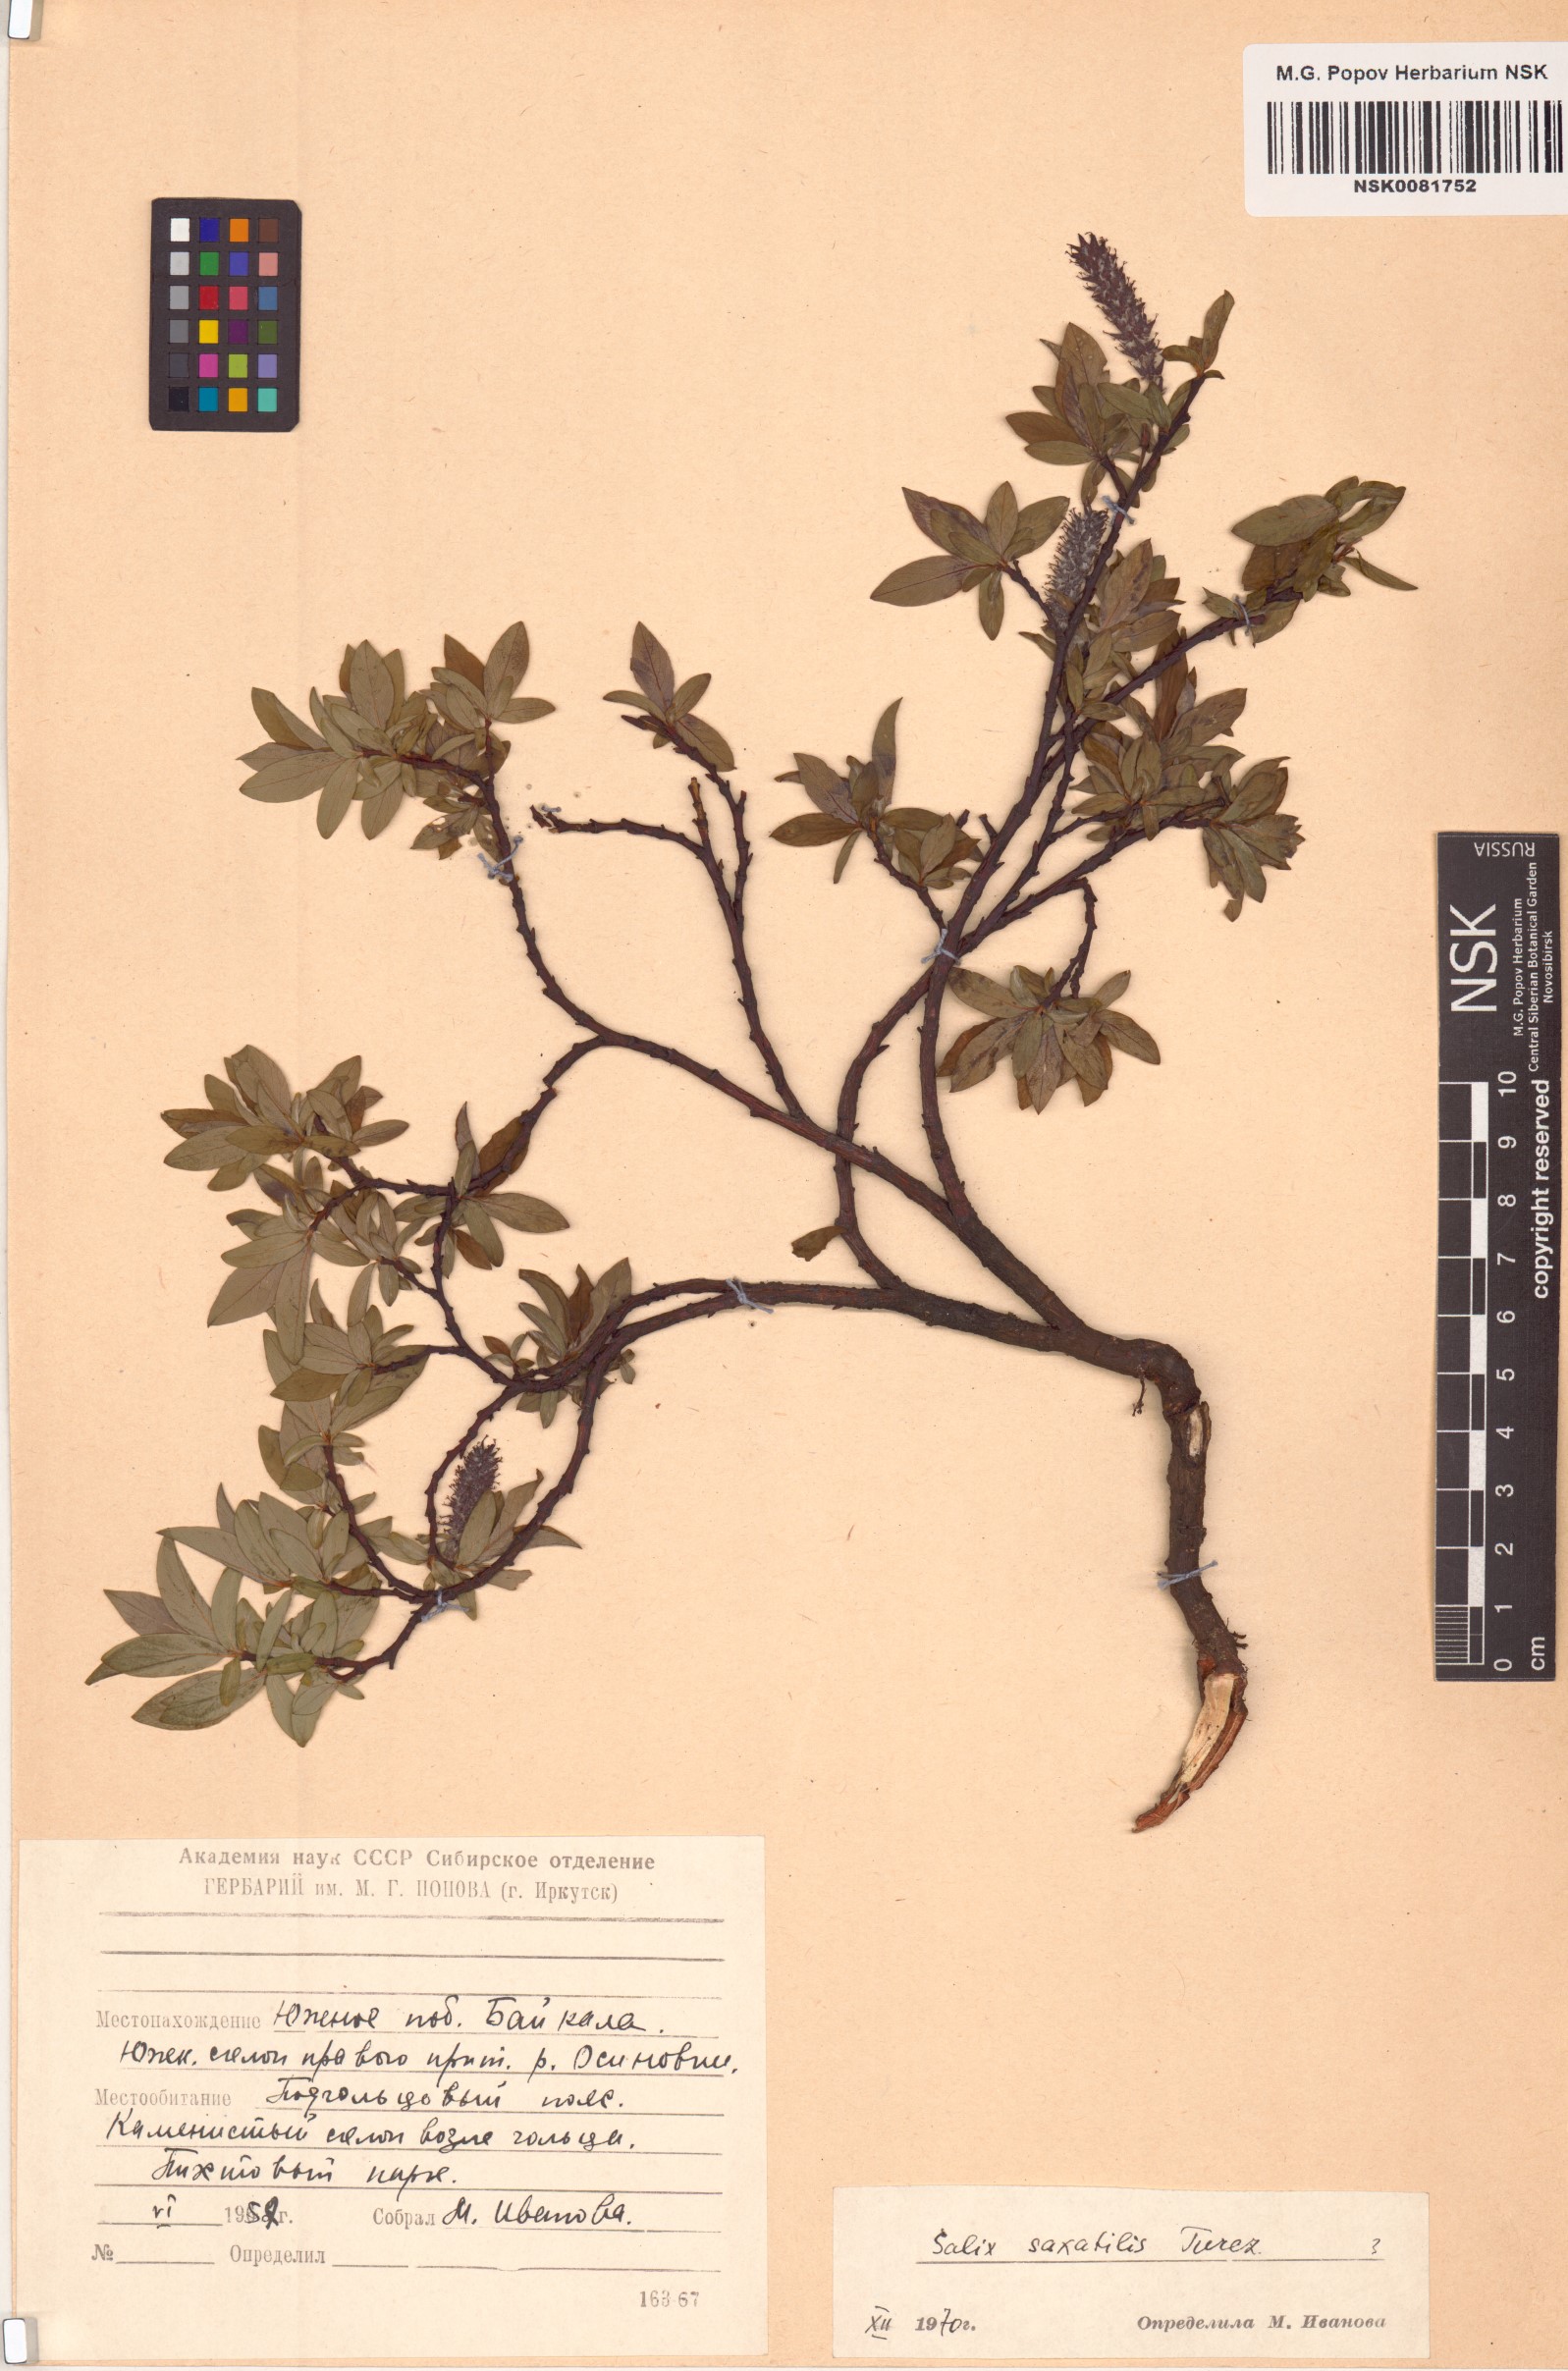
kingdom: Plantae
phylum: Tracheophyta
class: Magnoliopsida
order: Malpighiales
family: Salicaceae
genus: Salix
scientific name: Salix saxatilis
